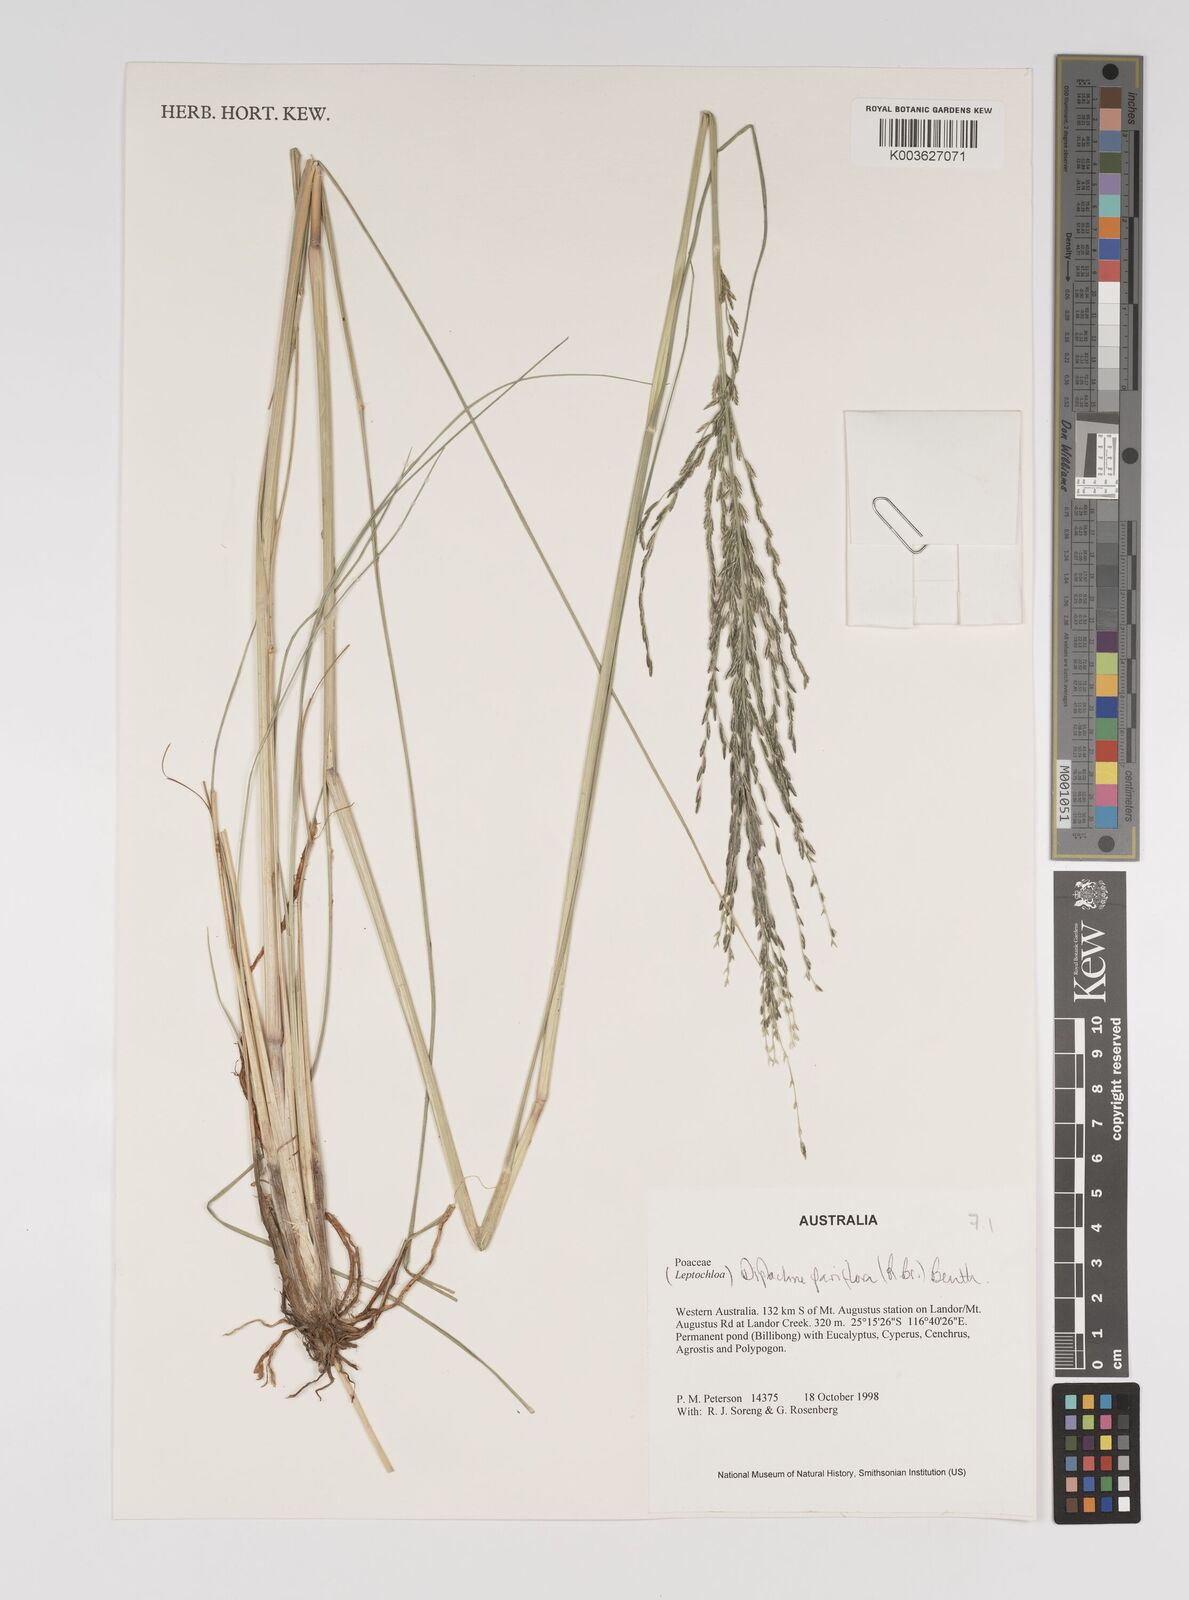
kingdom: Plantae
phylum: Tracheophyta
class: Liliopsida
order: Poales
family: Poaceae
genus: Diplachne
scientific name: Diplachne fusca
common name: Brown beetle grass
